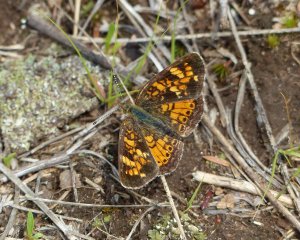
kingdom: Animalia
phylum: Arthropoda
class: Insecta
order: Lepidoptera
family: Nymphalidae
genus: Phyciodes
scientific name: Phyciodes batesii
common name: Tawny Crescent
